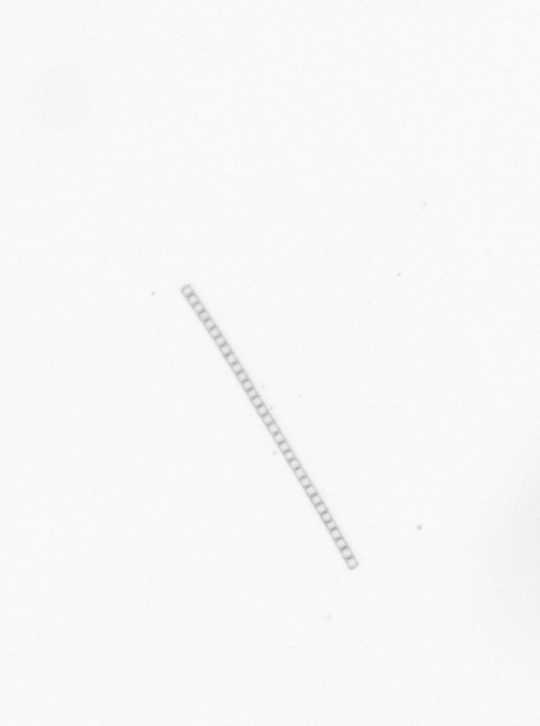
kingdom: Chromista
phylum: Ochrophyta
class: Bacillariophyceae
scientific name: Bacillariophyceae
